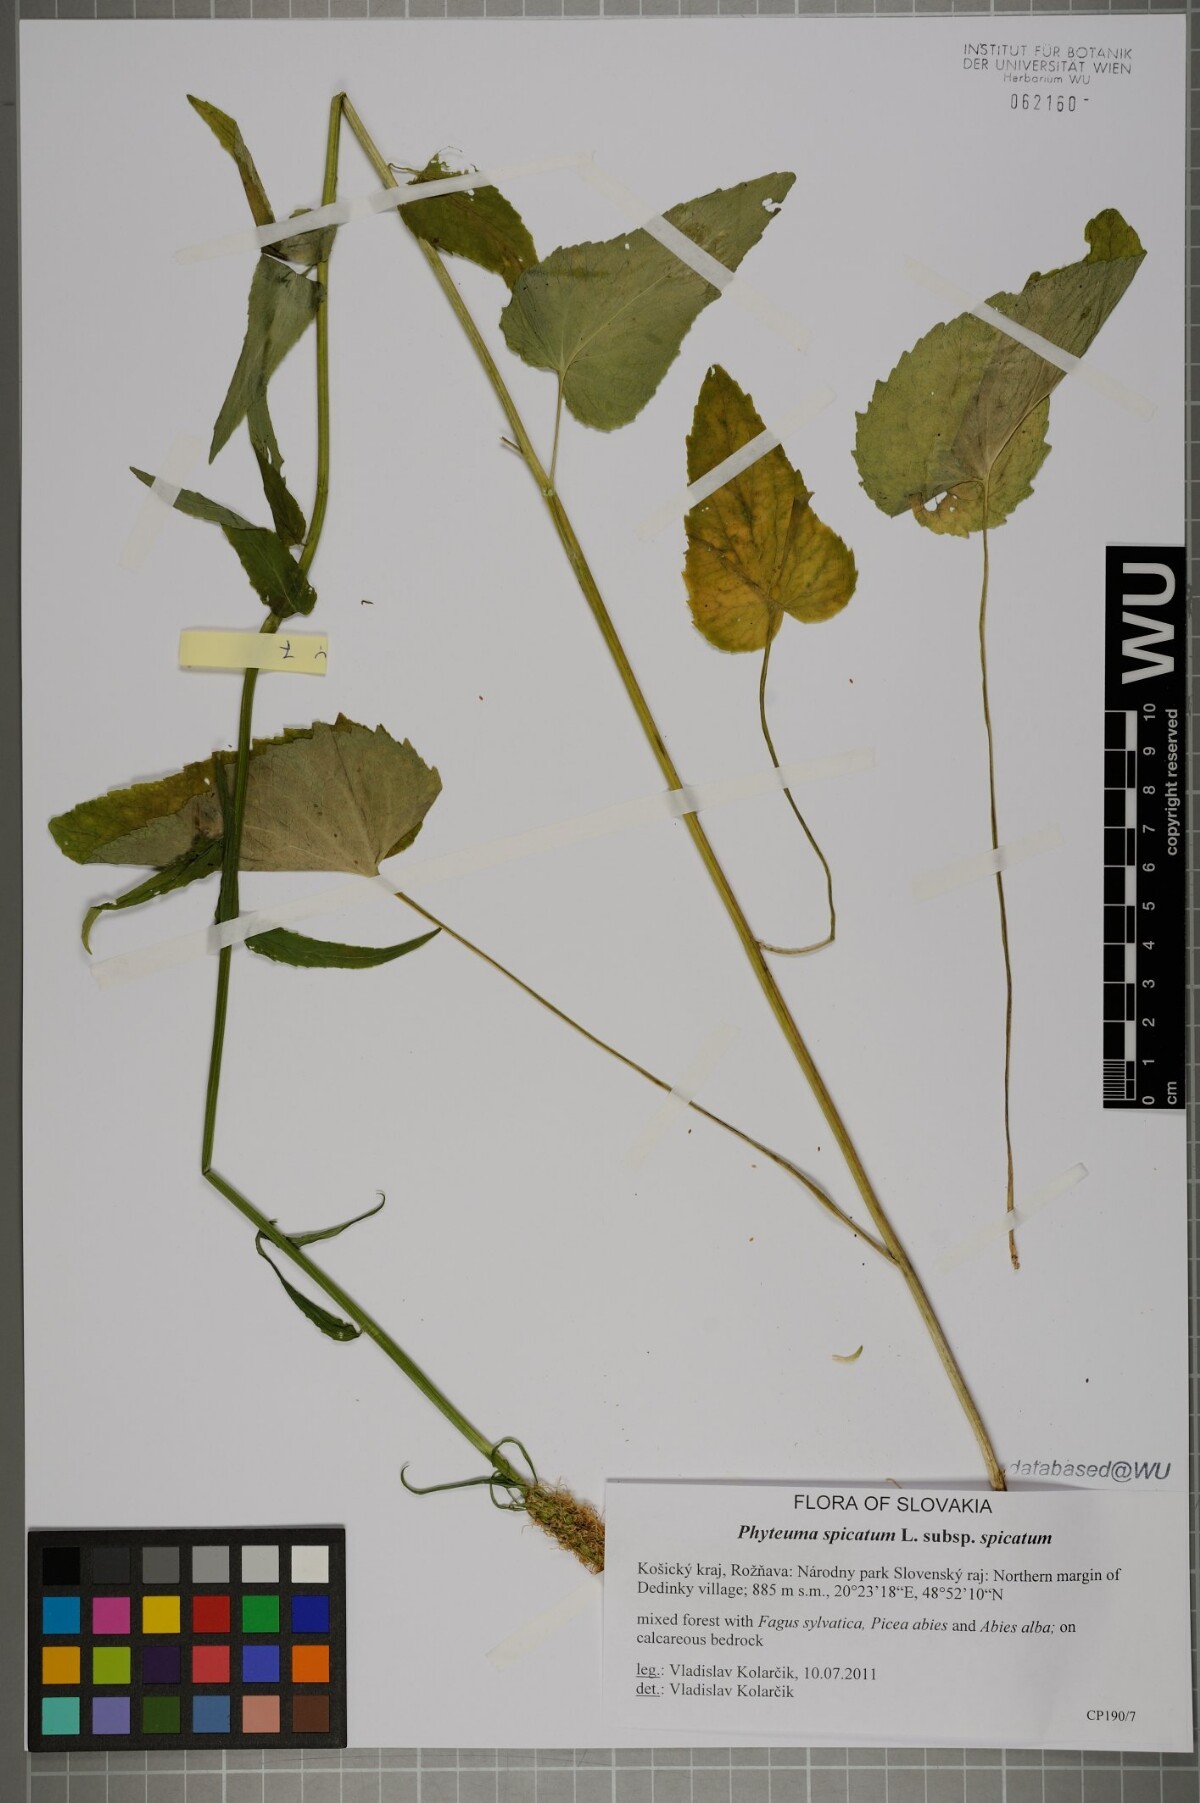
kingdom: Plantae
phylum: Tracheophyta
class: Magnoliopsida
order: Asterales
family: Campanulaceae
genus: Phyteuma
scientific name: Phyteuma spicatum
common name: Spiked rampion
